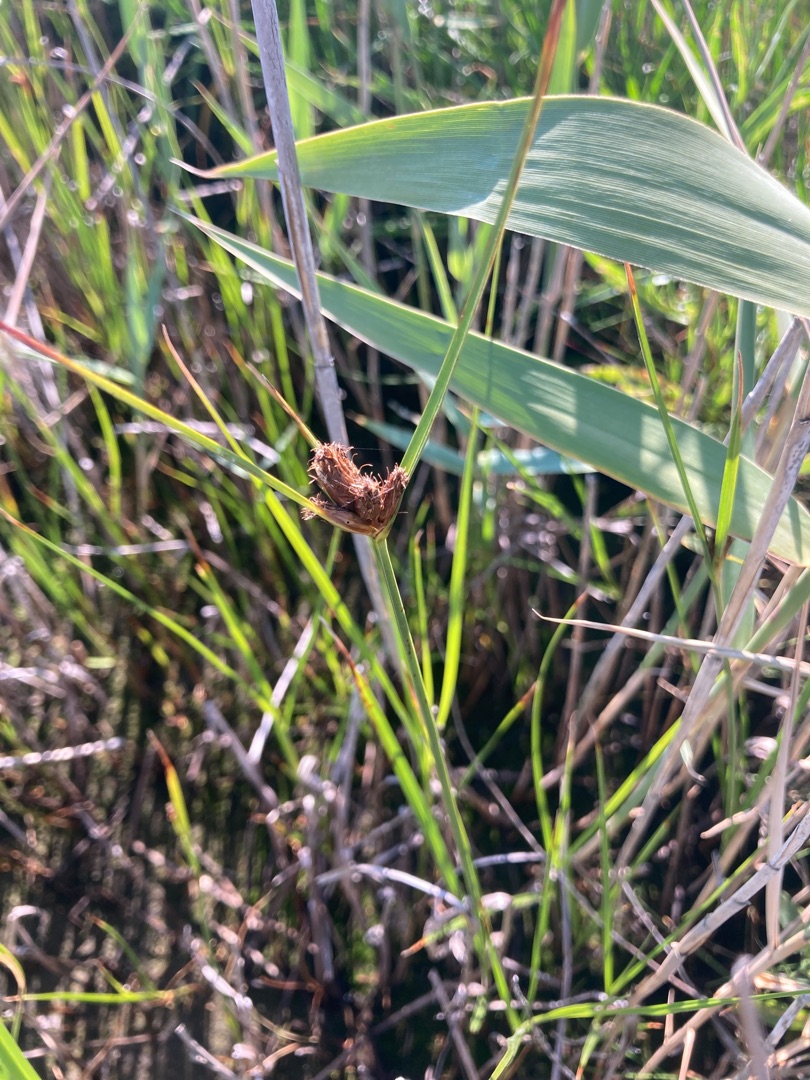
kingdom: Plantae
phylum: Tracheophyta
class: Liliopsida
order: Poales
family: Cyperaceae
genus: Bolboschoenus
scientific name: Bolboschoenus maritimus
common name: Strand-kogleaks
